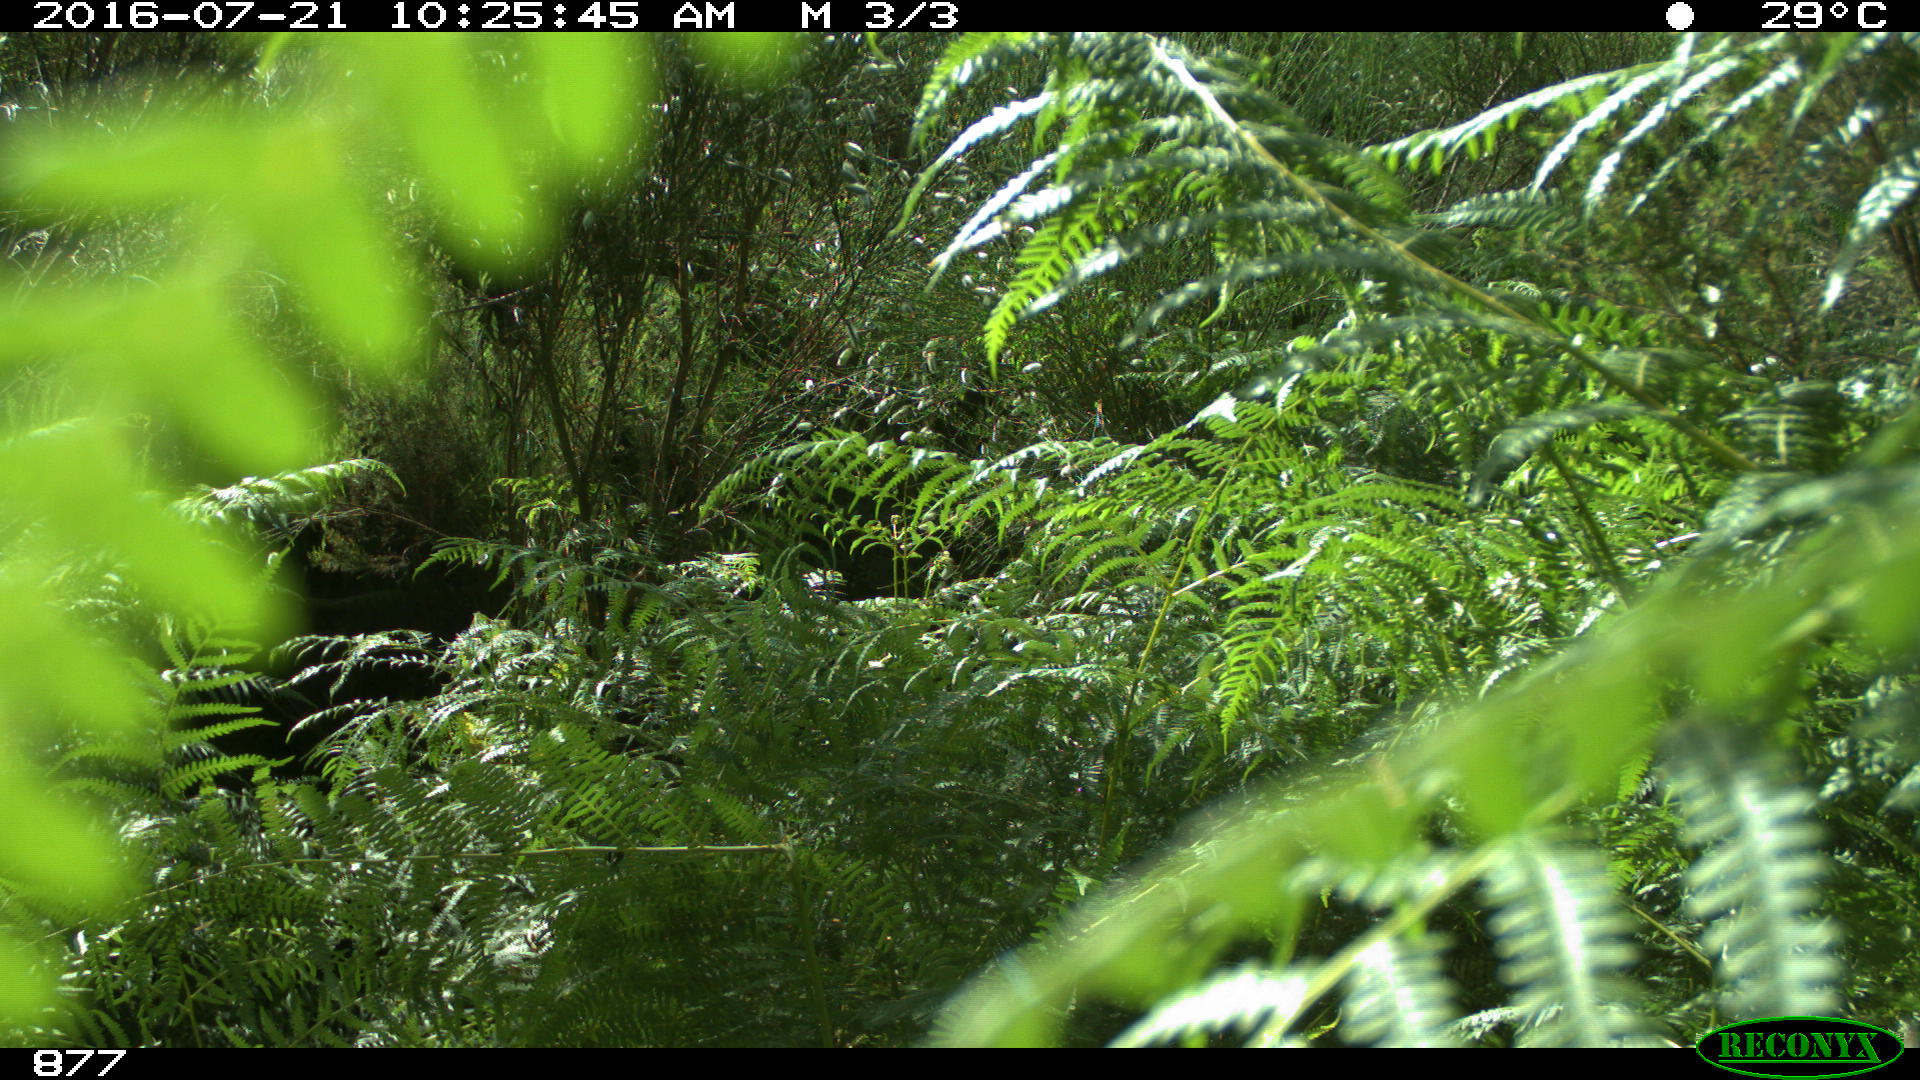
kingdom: Animalia
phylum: Chordata
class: Mammalia
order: Artiodactyla
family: Bovidae
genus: Bos
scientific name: Bos taurus
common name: Domesticated cattle
